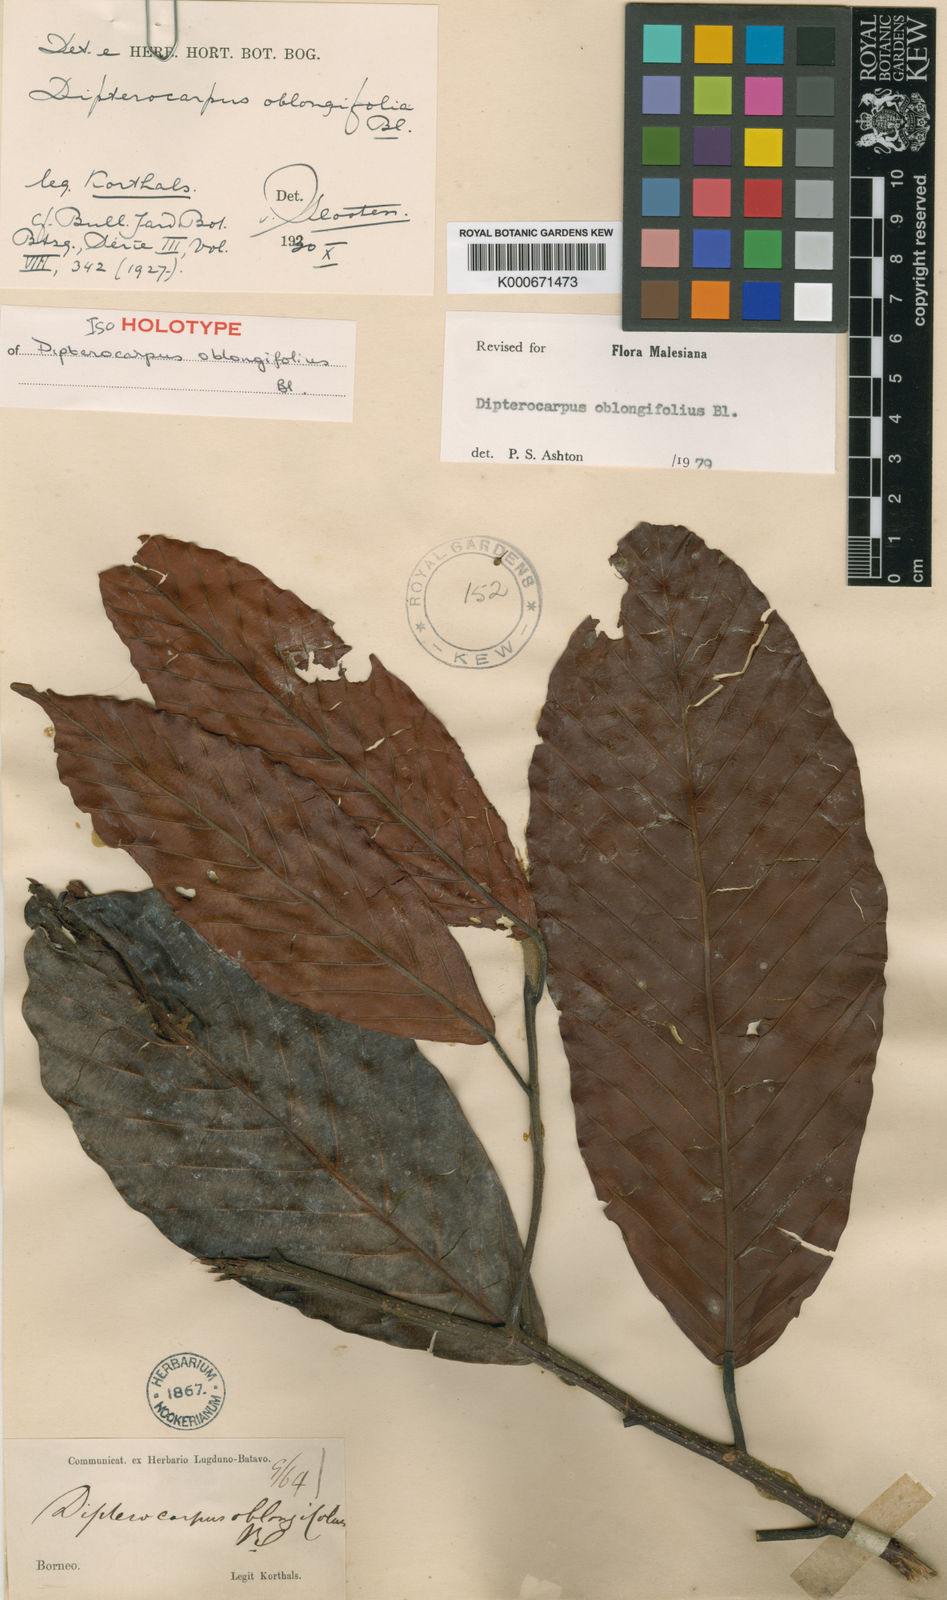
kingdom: Plantae
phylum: Tracheophyta
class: Magnoliopsida
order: Malvales
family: Dipterocarpaceae
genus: Dipterocarpus
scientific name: Dipterocarpus oblongifolius
